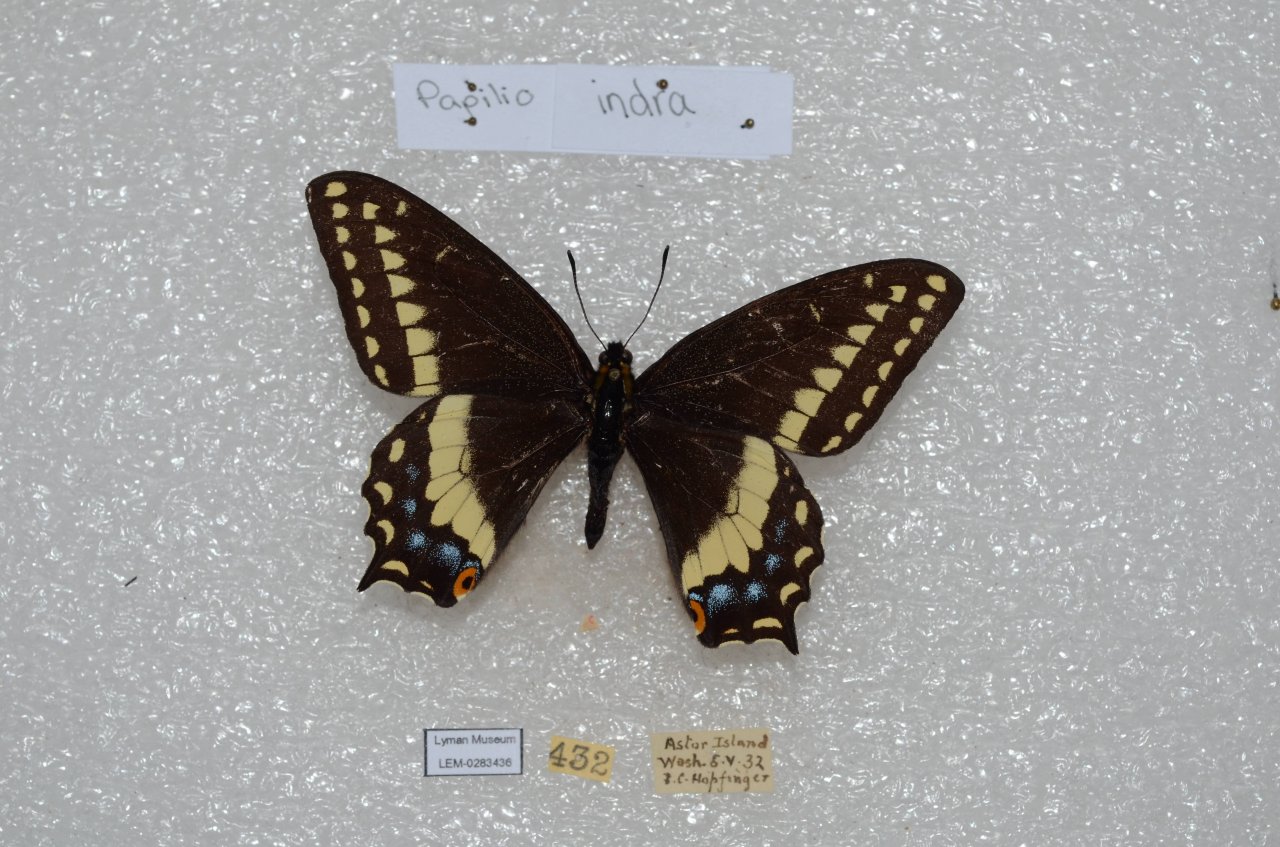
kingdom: Animalia
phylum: Arthropoda
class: Insecta
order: Lepidoptera
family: Papilionidae
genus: Papilio
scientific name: Papilio indra
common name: Indra Swallowtail
